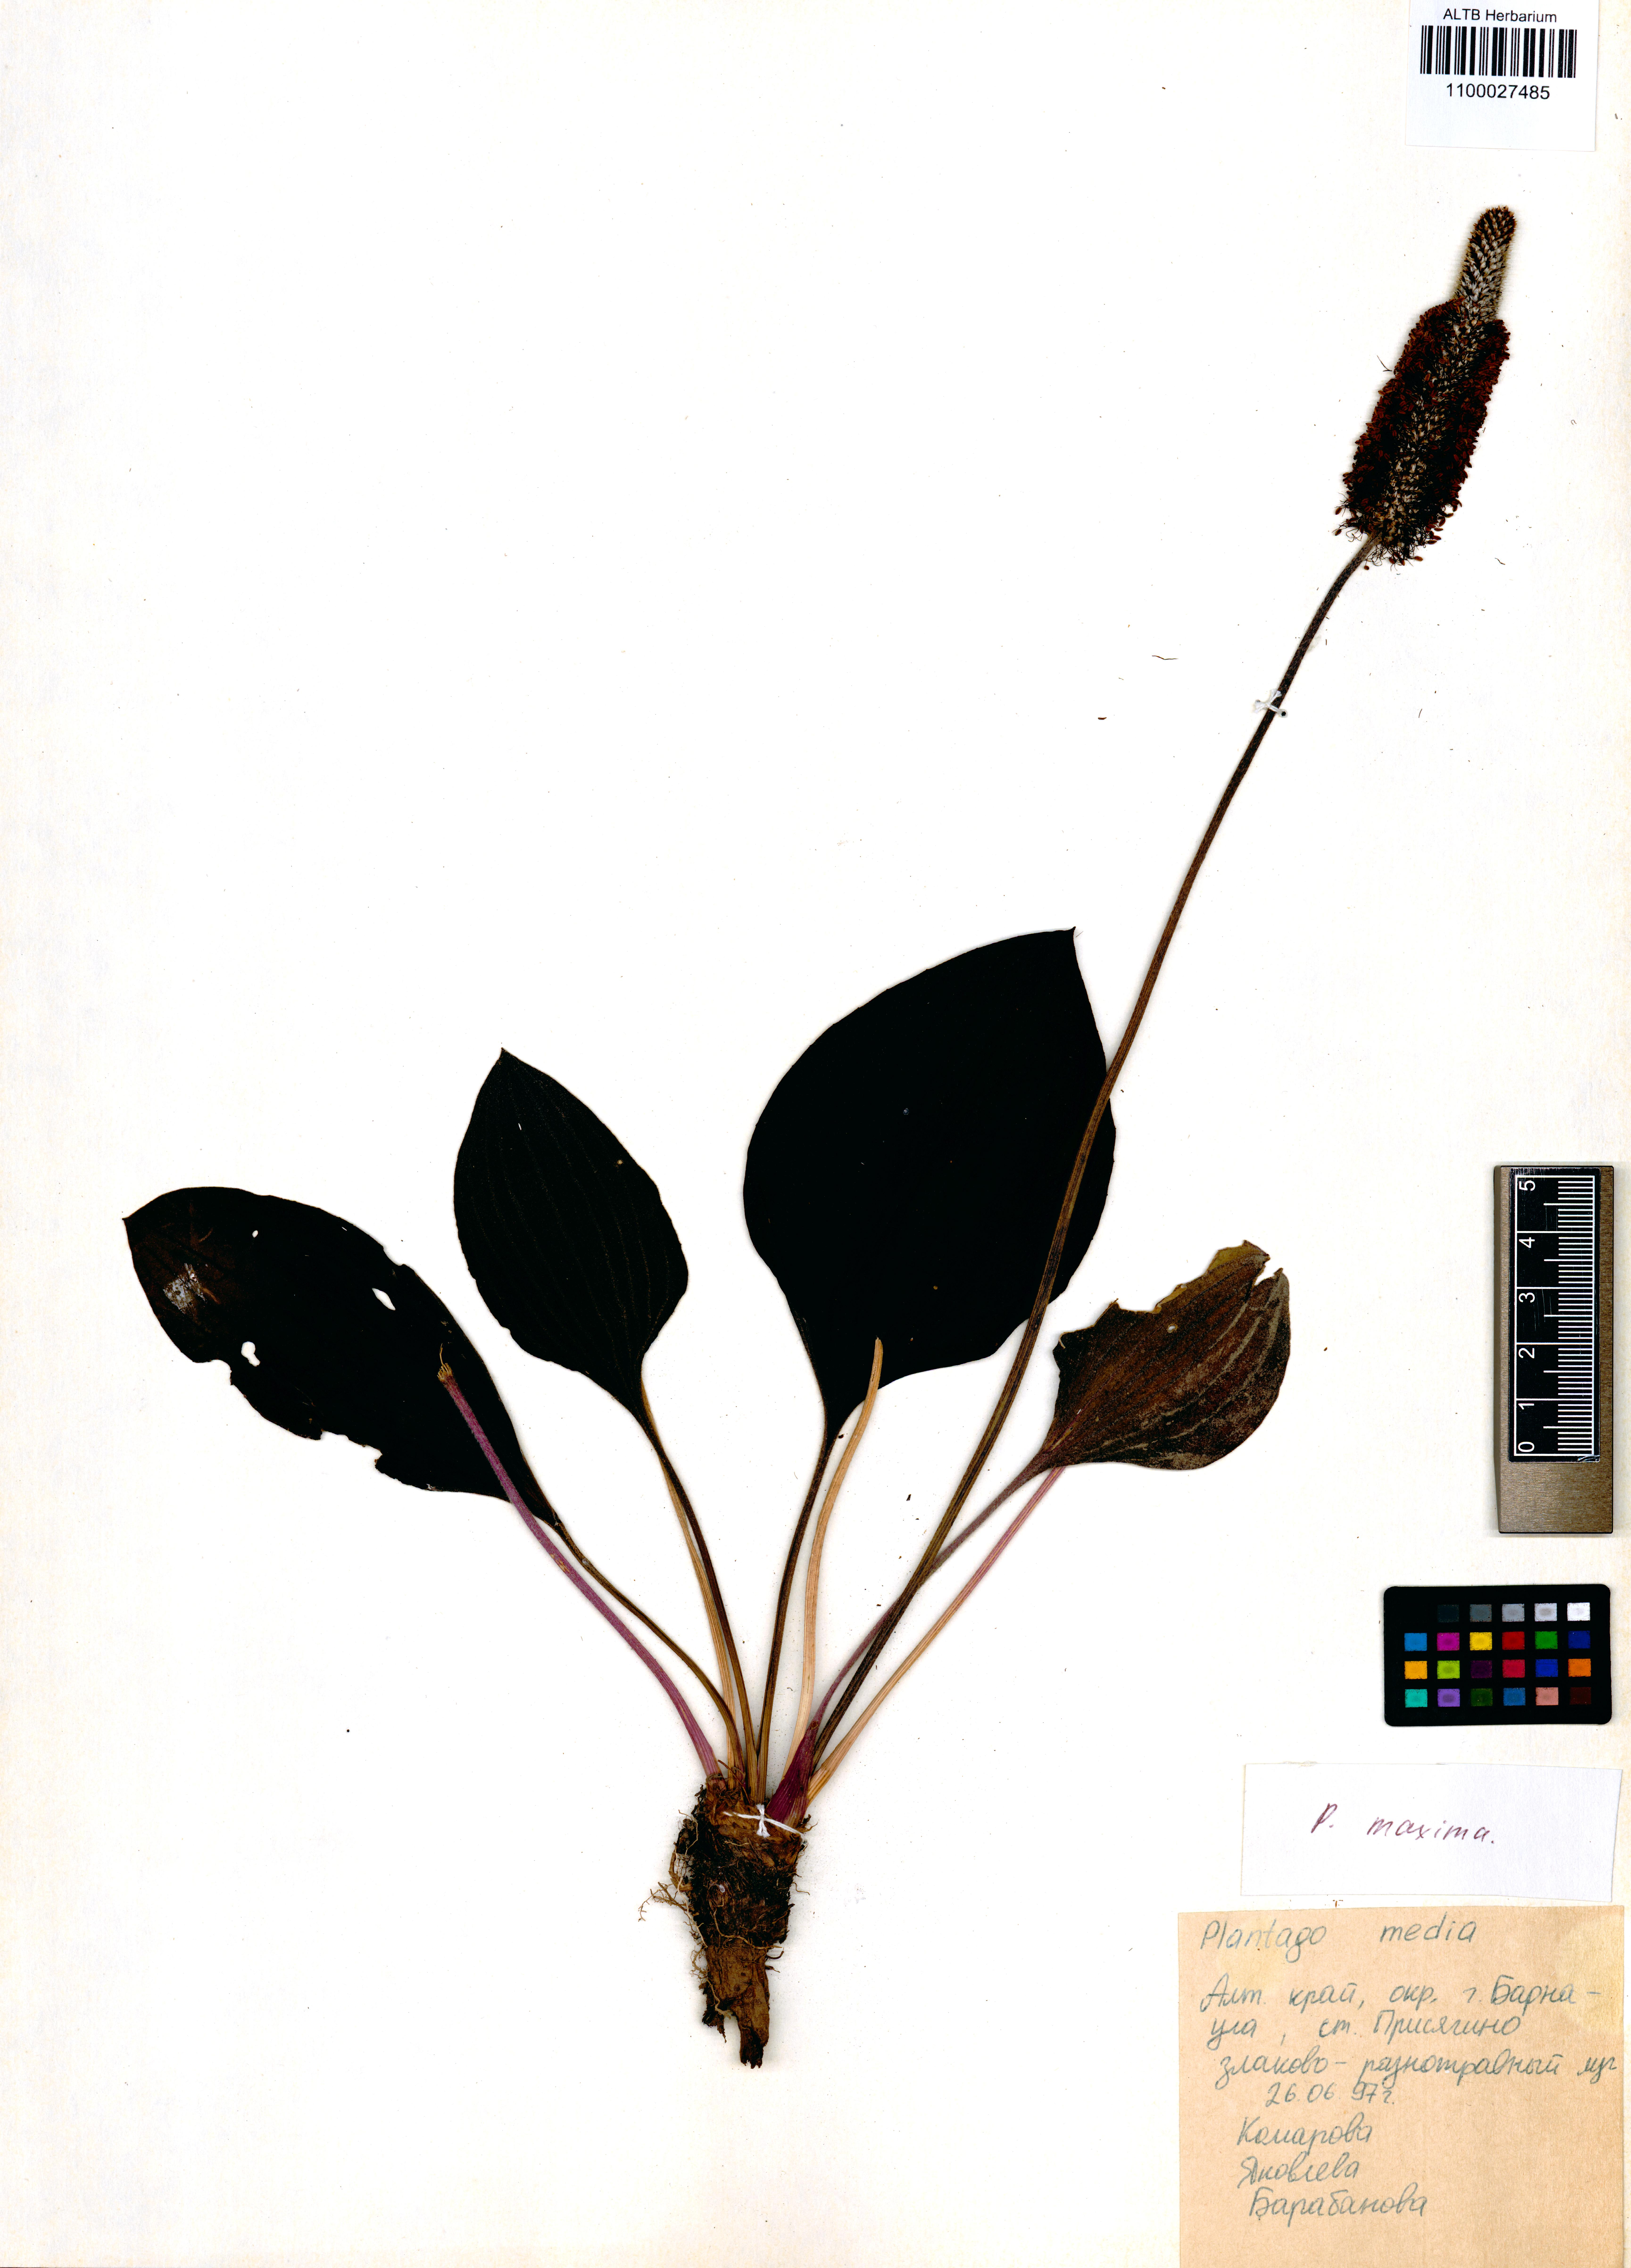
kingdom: Plantae
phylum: Tracheophyta
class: Magnoliopsida
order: Lamiales
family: Plantaginaceae
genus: Plantago
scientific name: Plantago maxima
